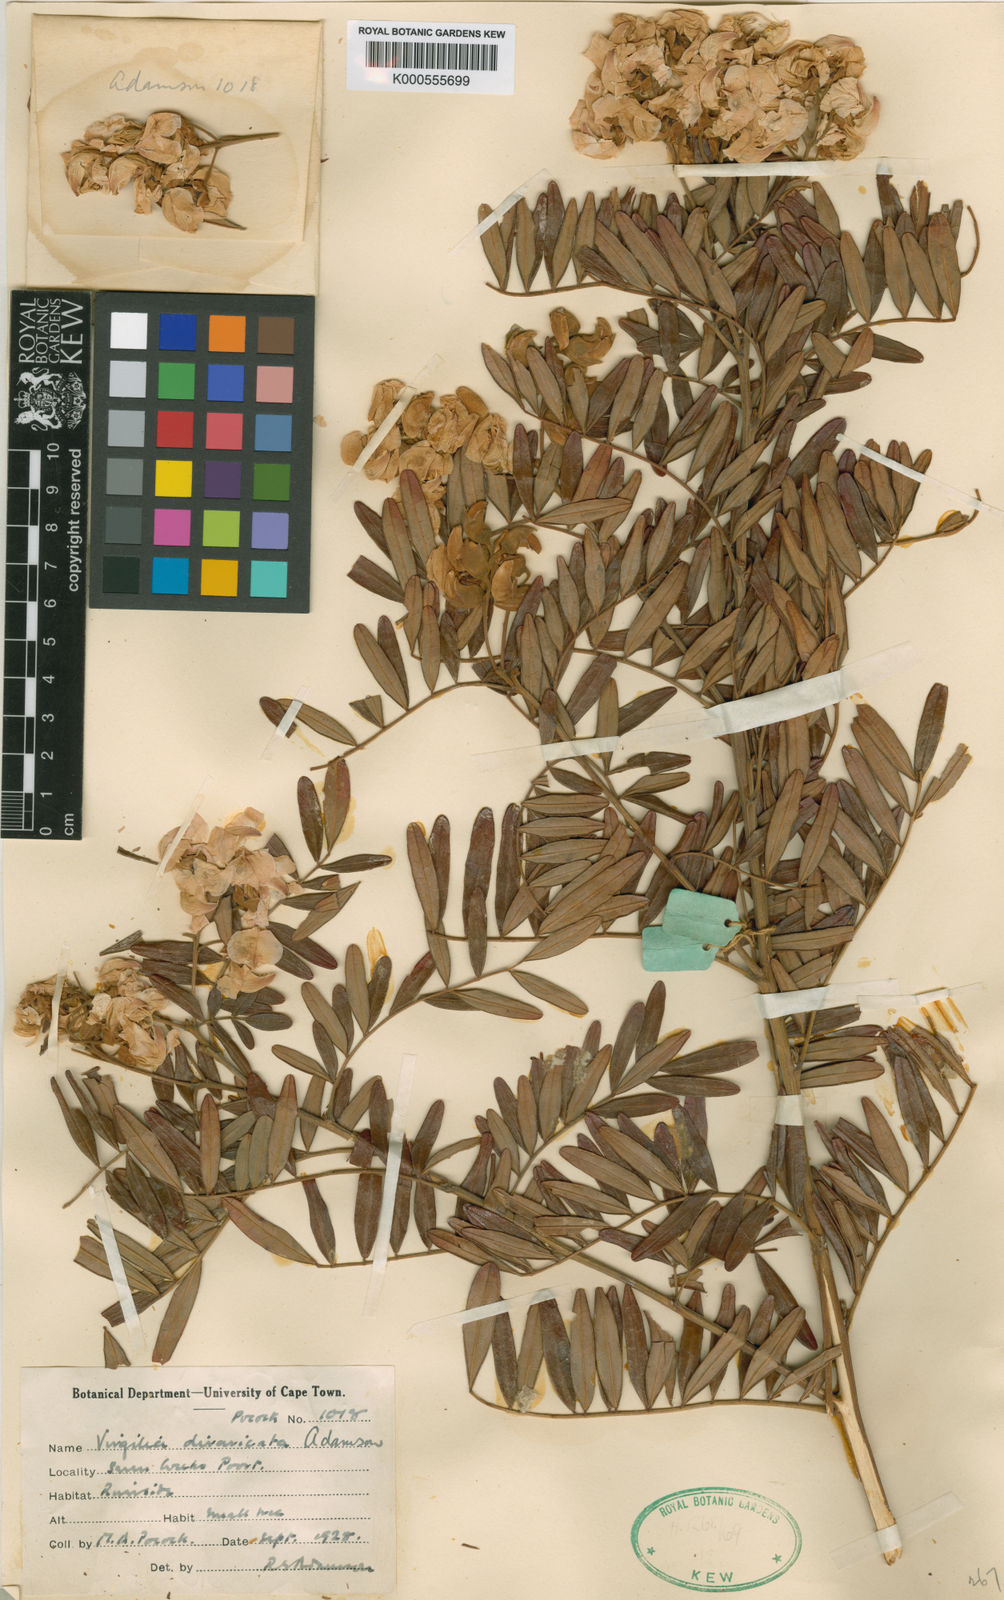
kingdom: Plantae
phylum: Tracheophyta
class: Magnoliopsida
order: Fabales
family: Fabaceae
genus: Virgilia
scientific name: Virgilia divaricata
